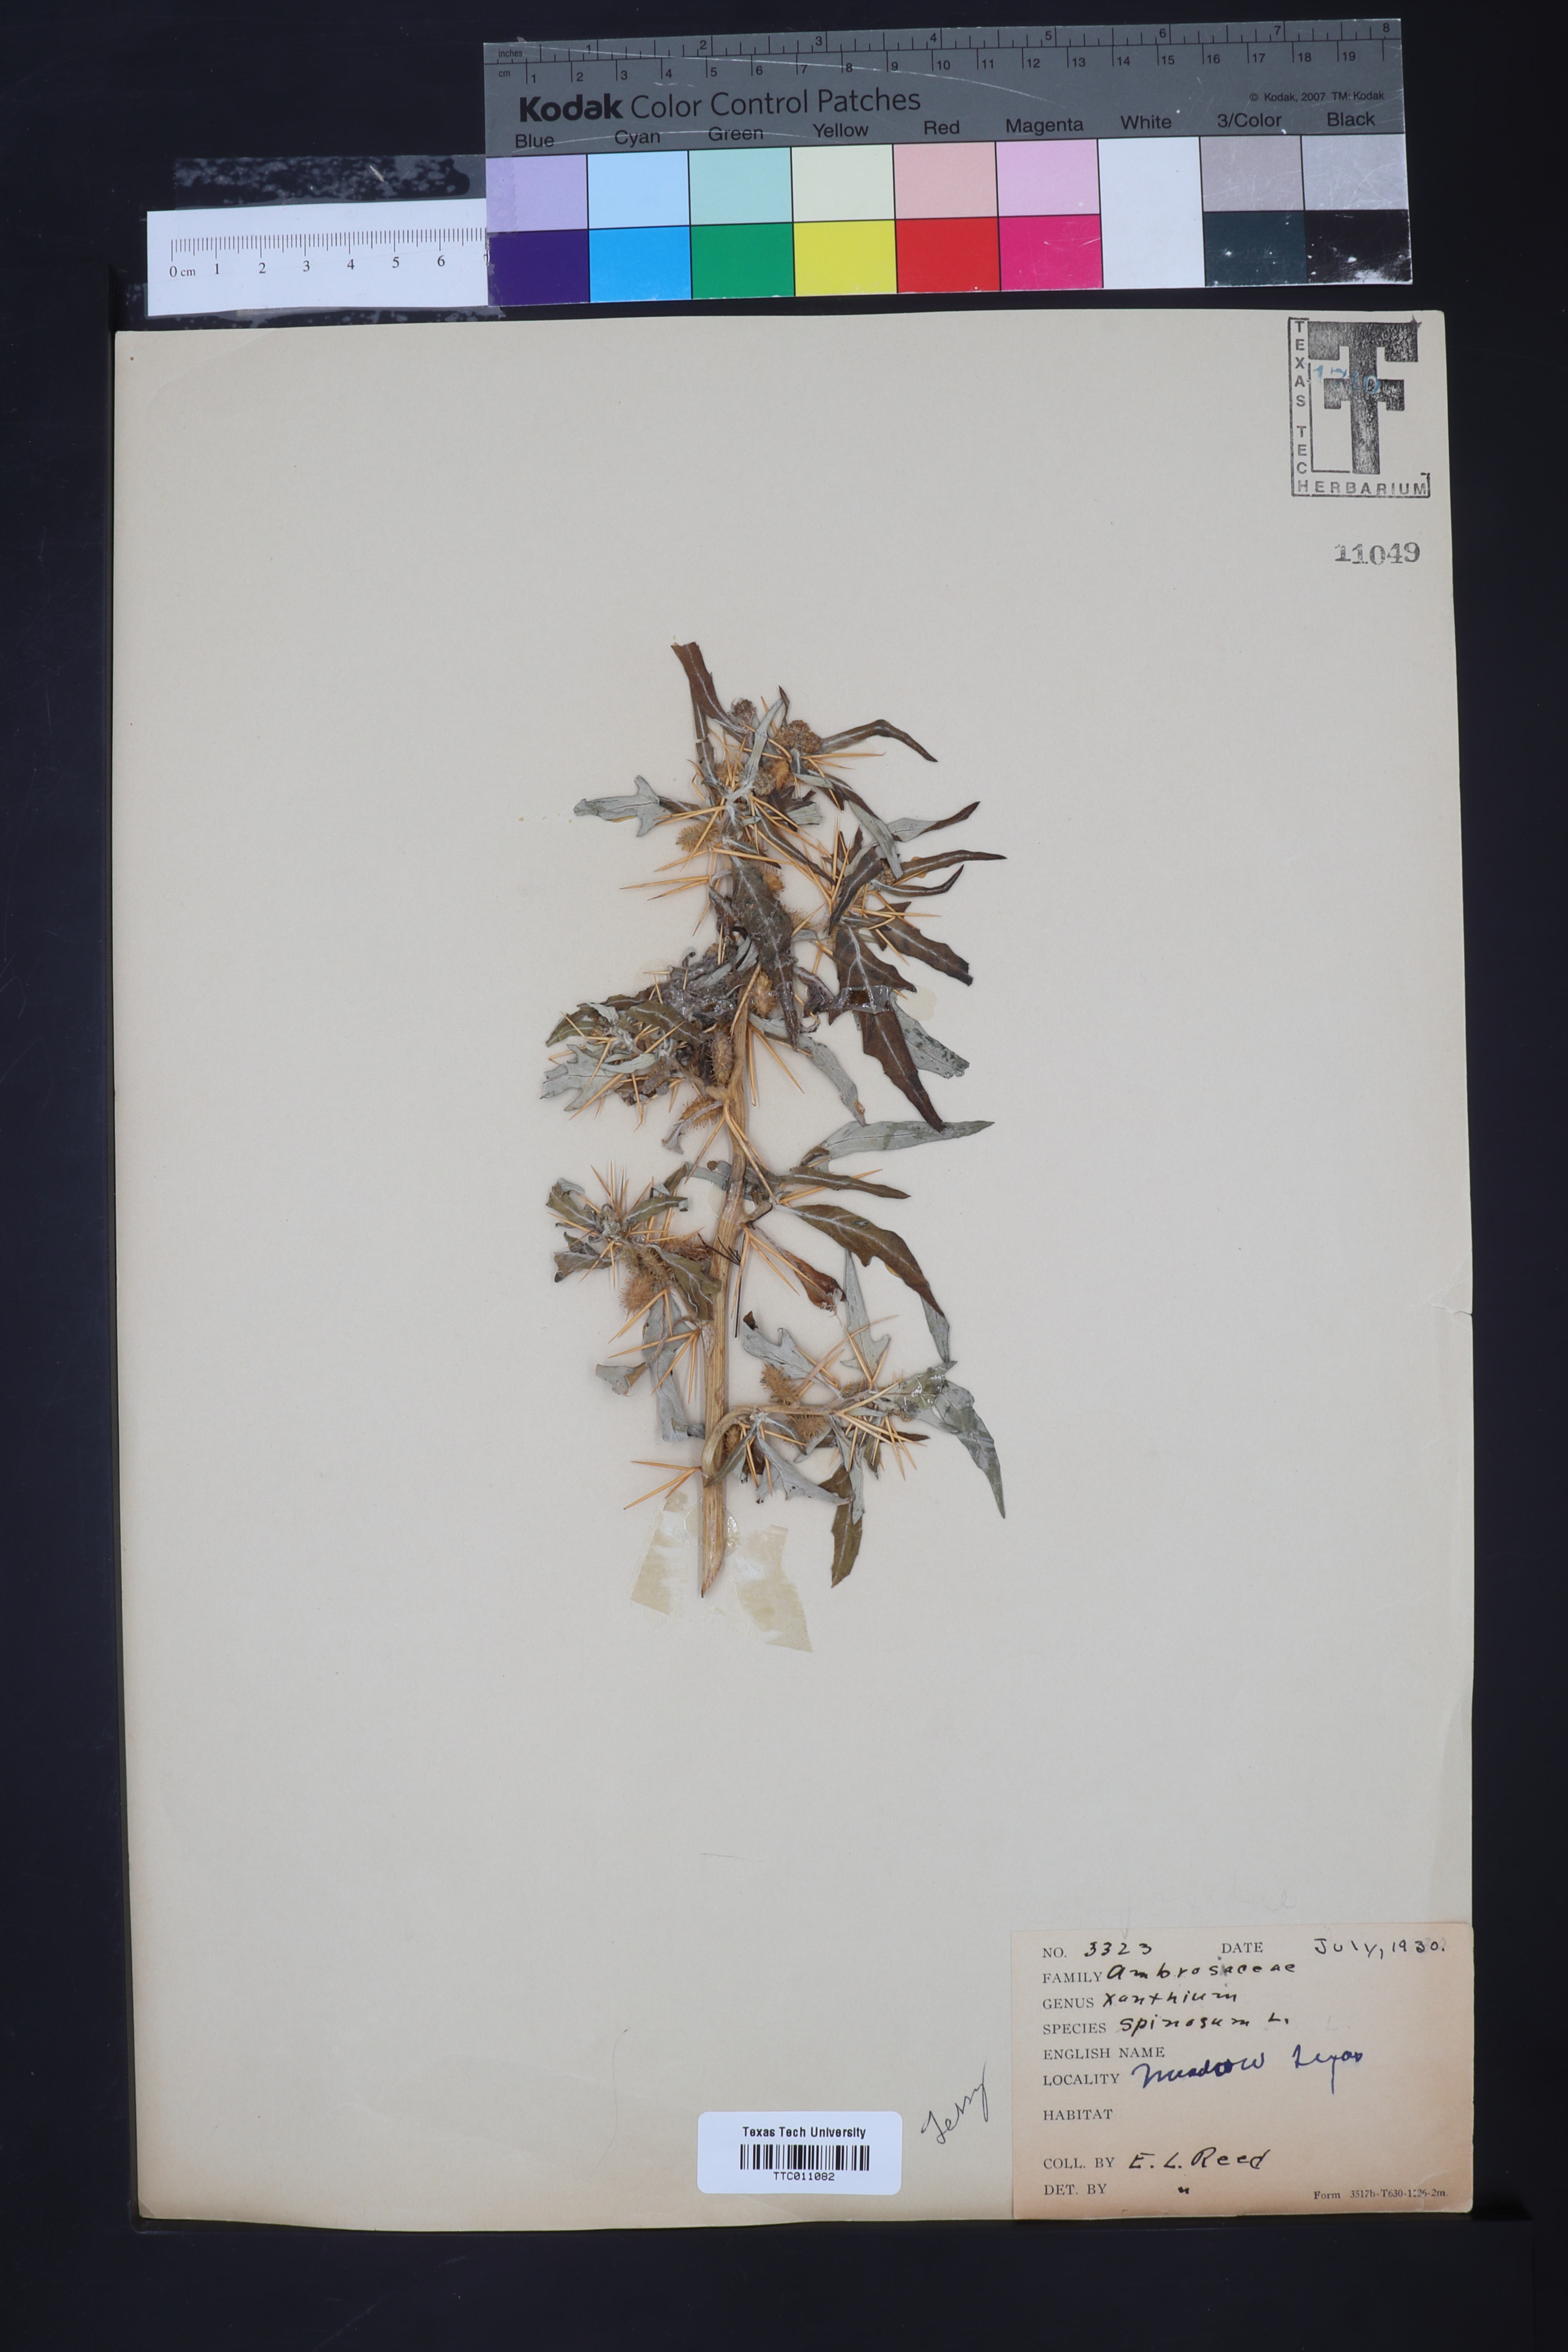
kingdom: Plantae
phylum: Tracheophyta
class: Magnoliopsida
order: Asterales
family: Asteraceae
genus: Xanthium
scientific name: Xanthium spinosum
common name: Spiny cocklebur
